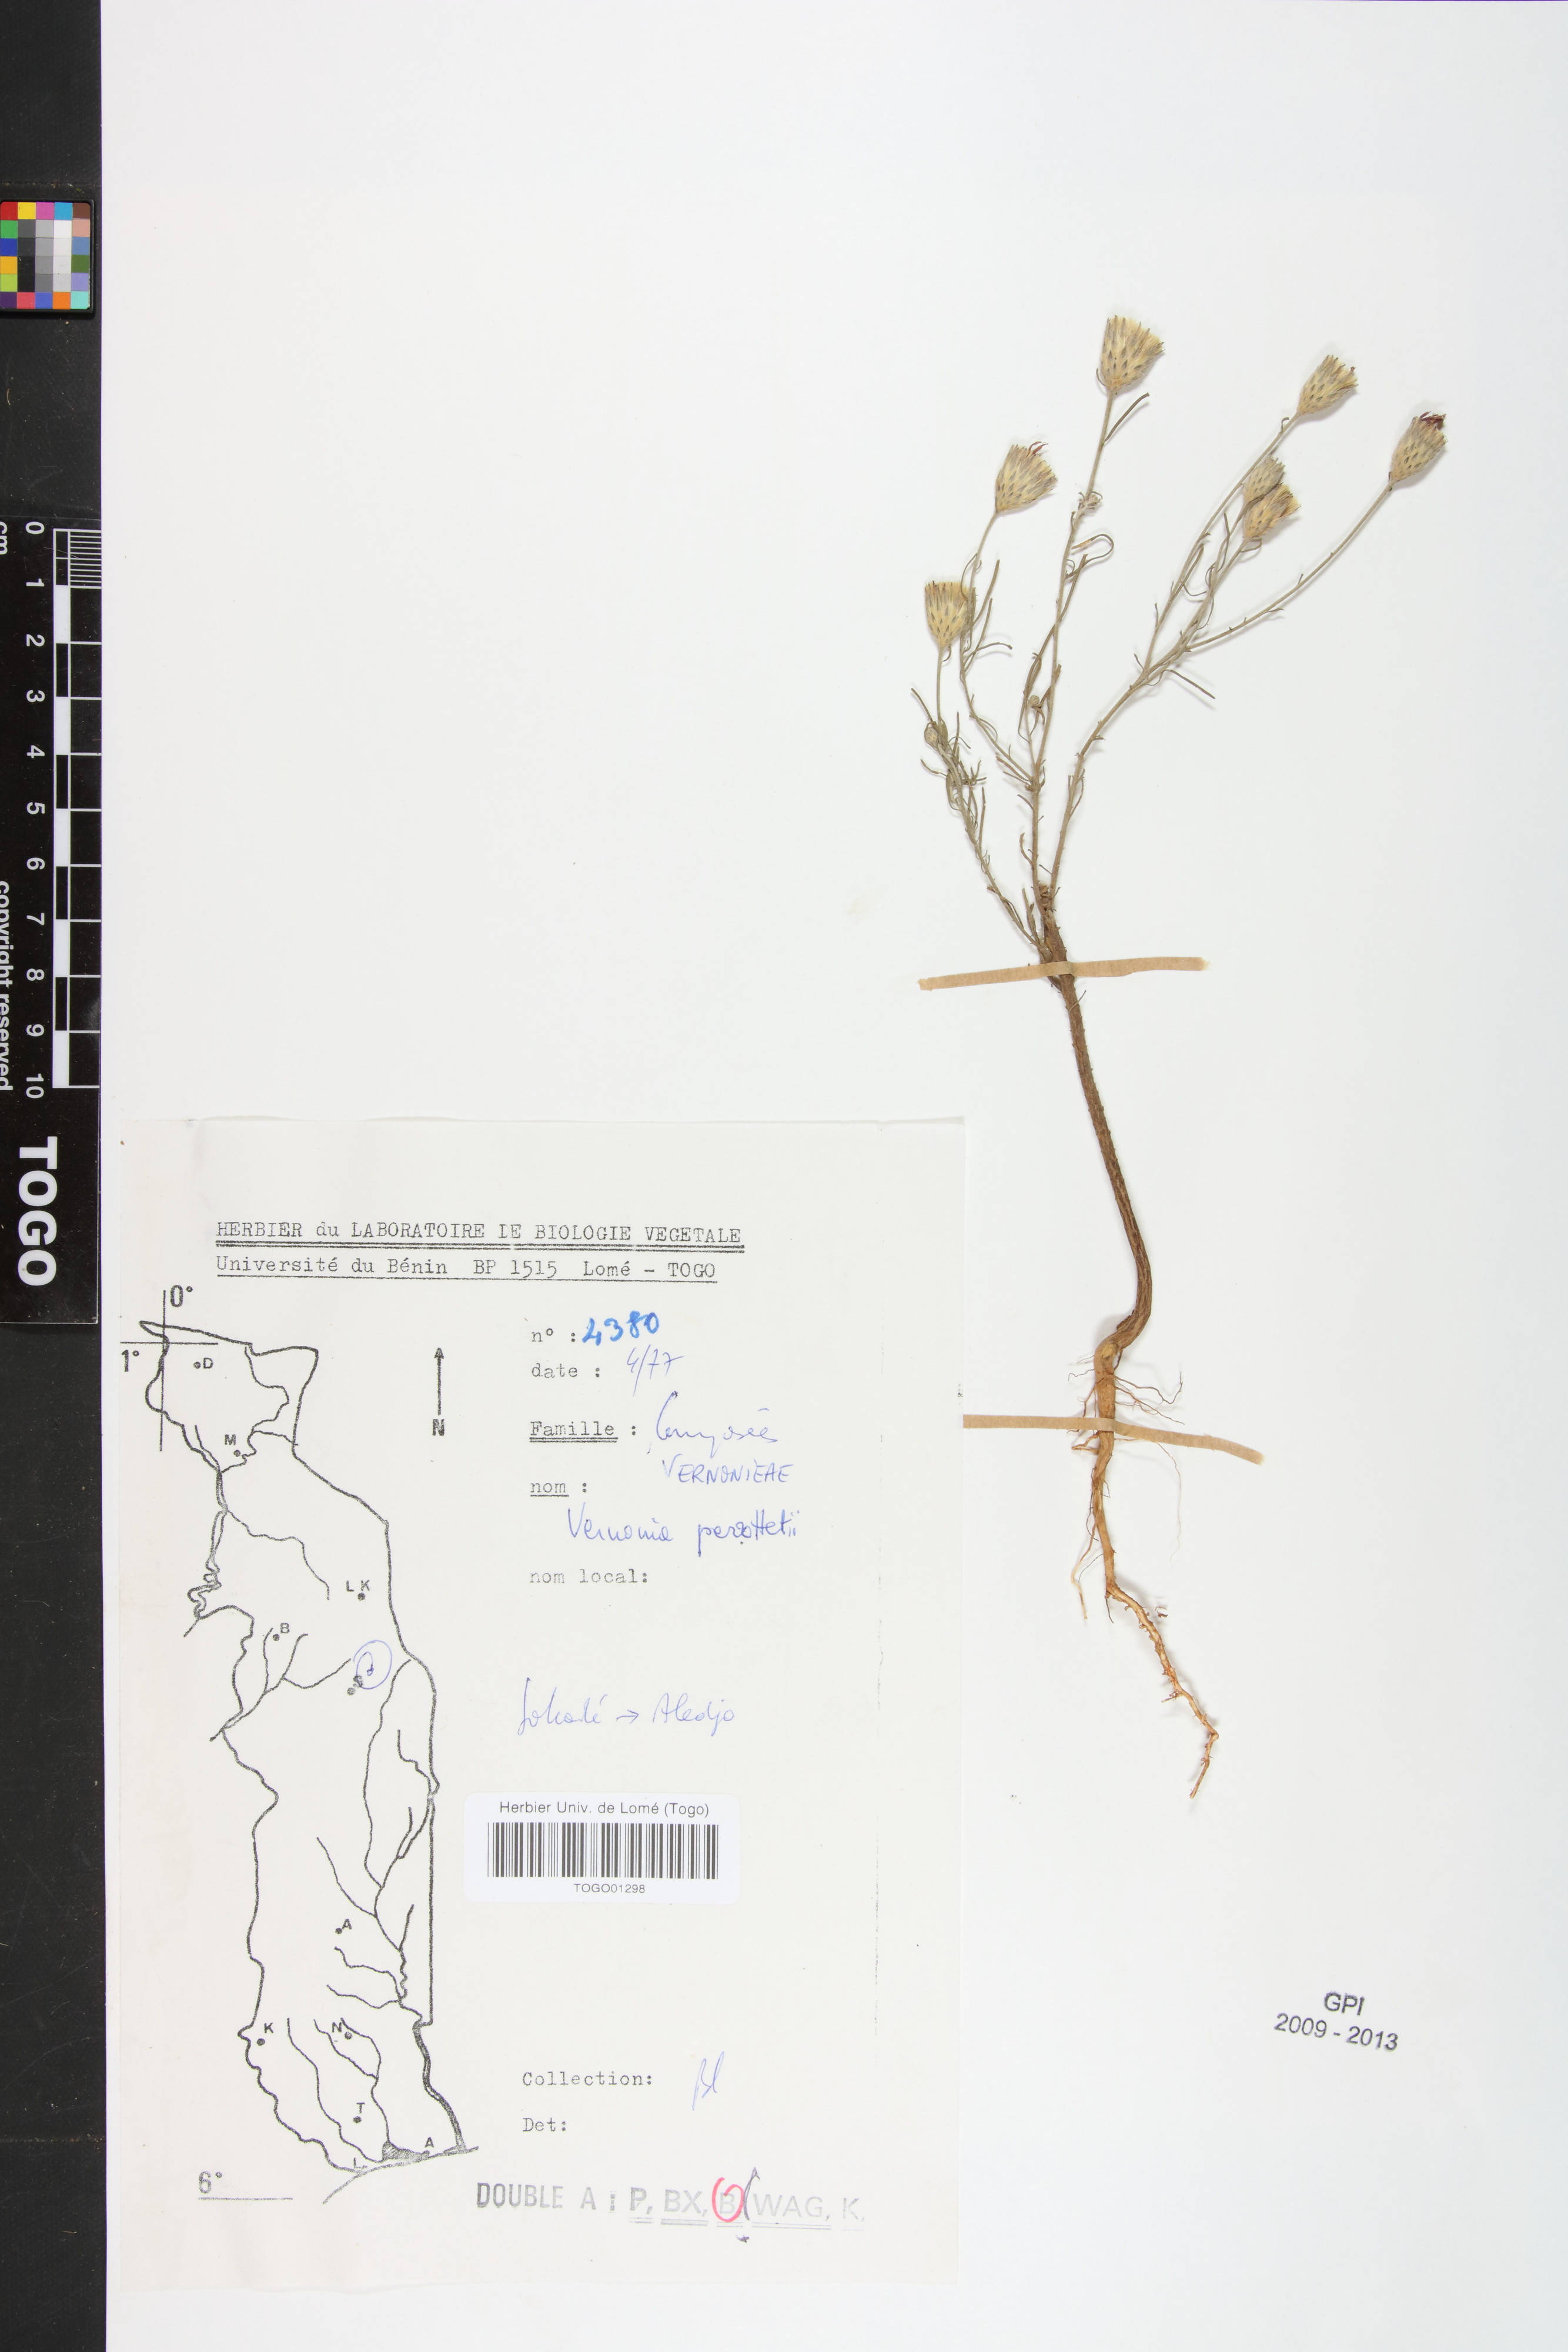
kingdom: Plantae
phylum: Tracheophyta
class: Magnoliopsida
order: Asterales
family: Asteraceae
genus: Crystallopollen
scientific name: Crystallopollen serratuloides
